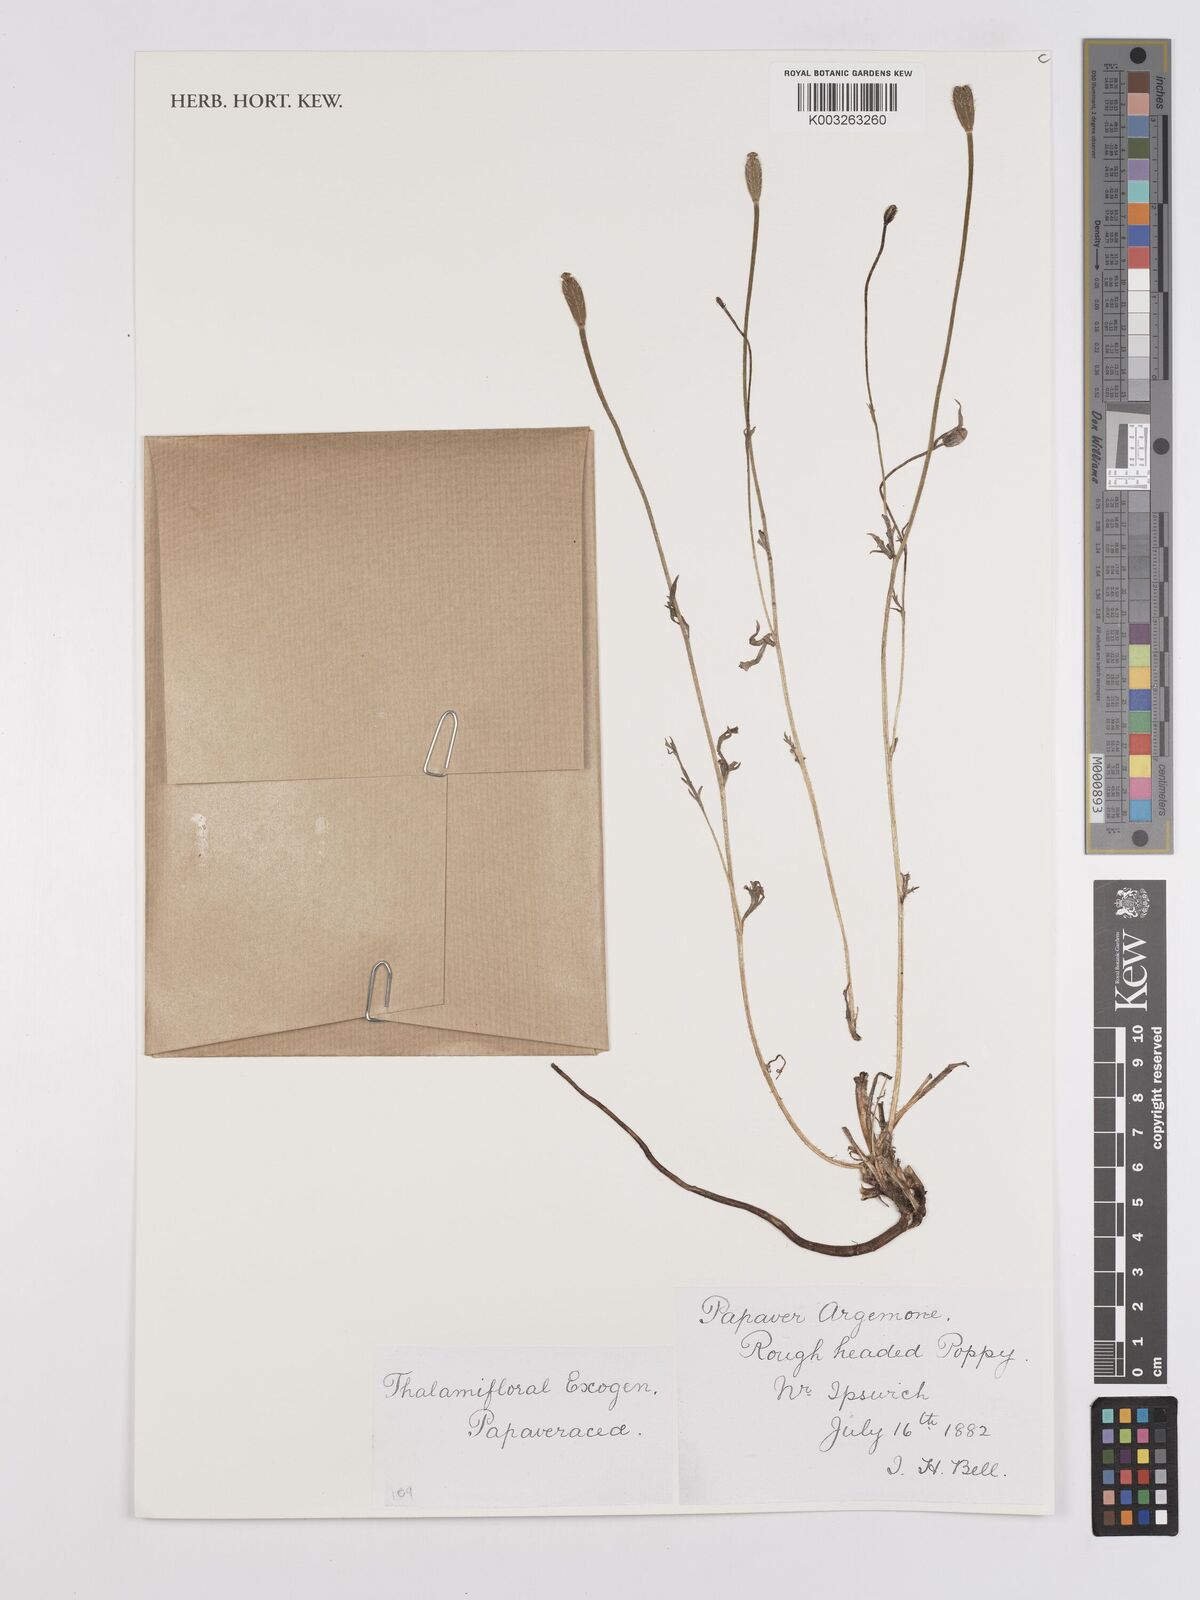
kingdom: Plantae
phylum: Tracheophyta
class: Magnoliopsida
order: Ranunculales
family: Papaveraceae
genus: Roemeria
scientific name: Roemeria argemone
